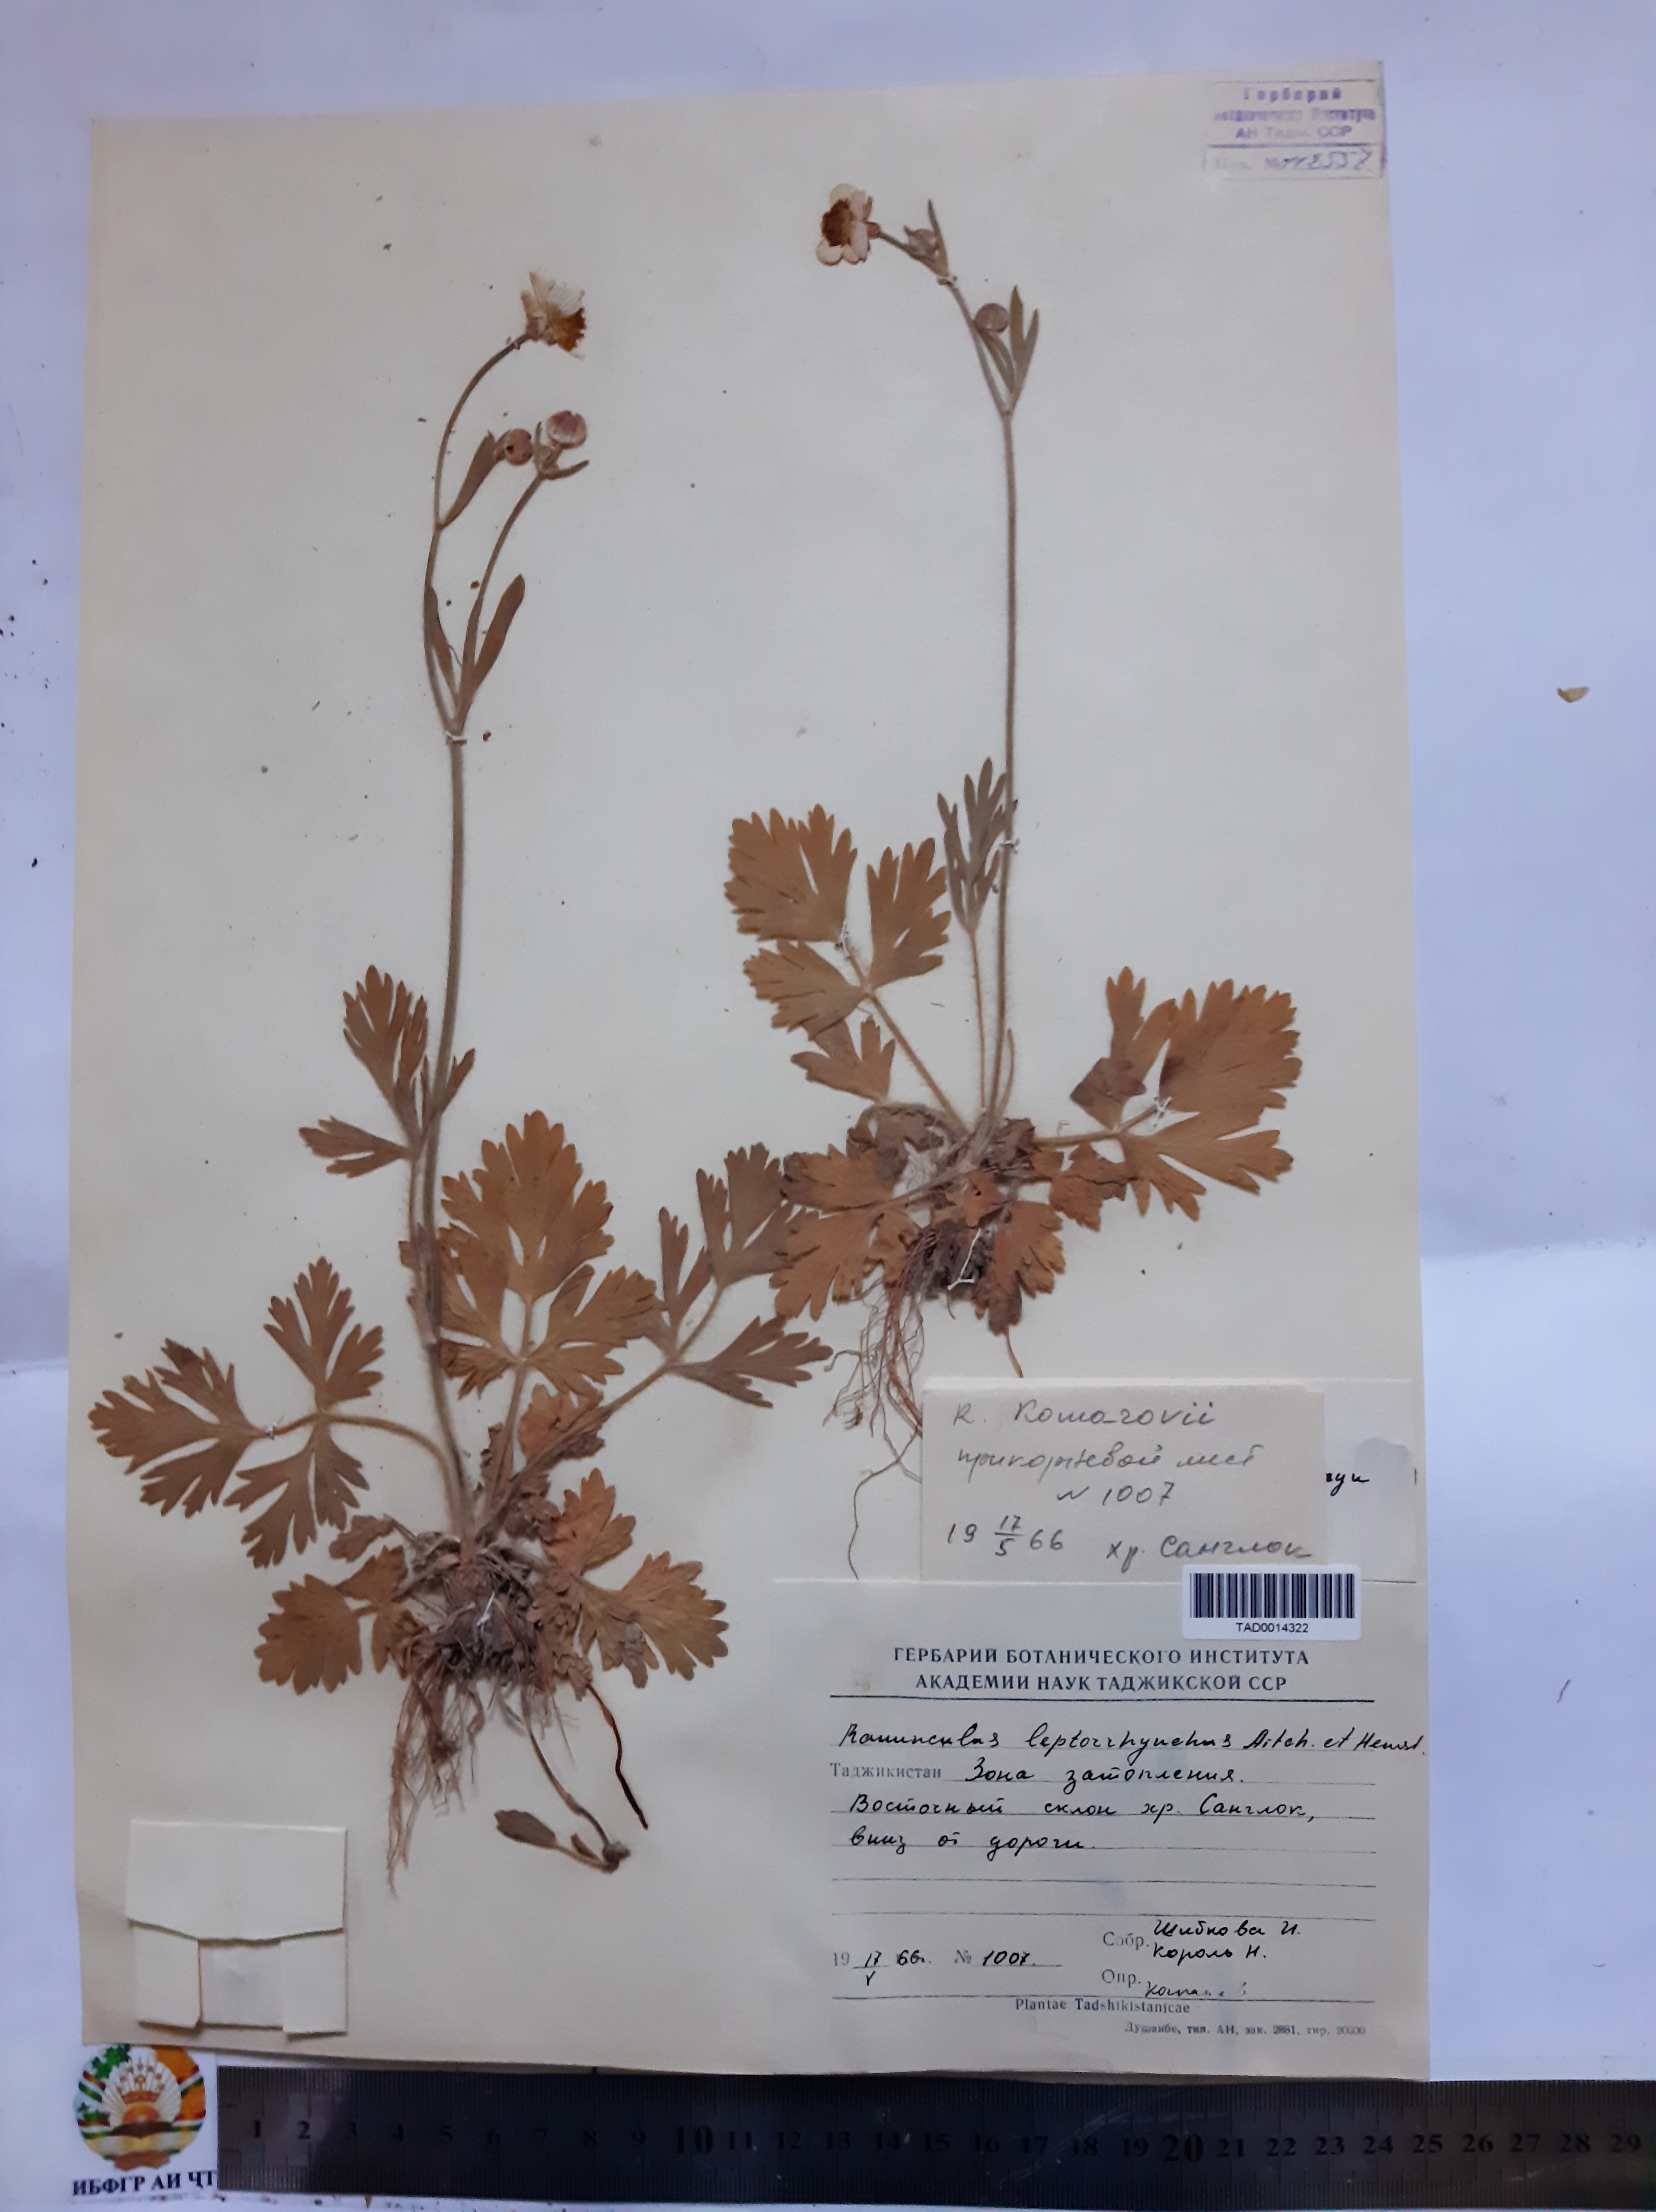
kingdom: Plantae
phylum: Tracheophyta
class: Magnoliopsida
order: Ranunculales
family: Ranunculaceae
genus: Ranunculus
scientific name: Ranunculus leptorrhynchus
